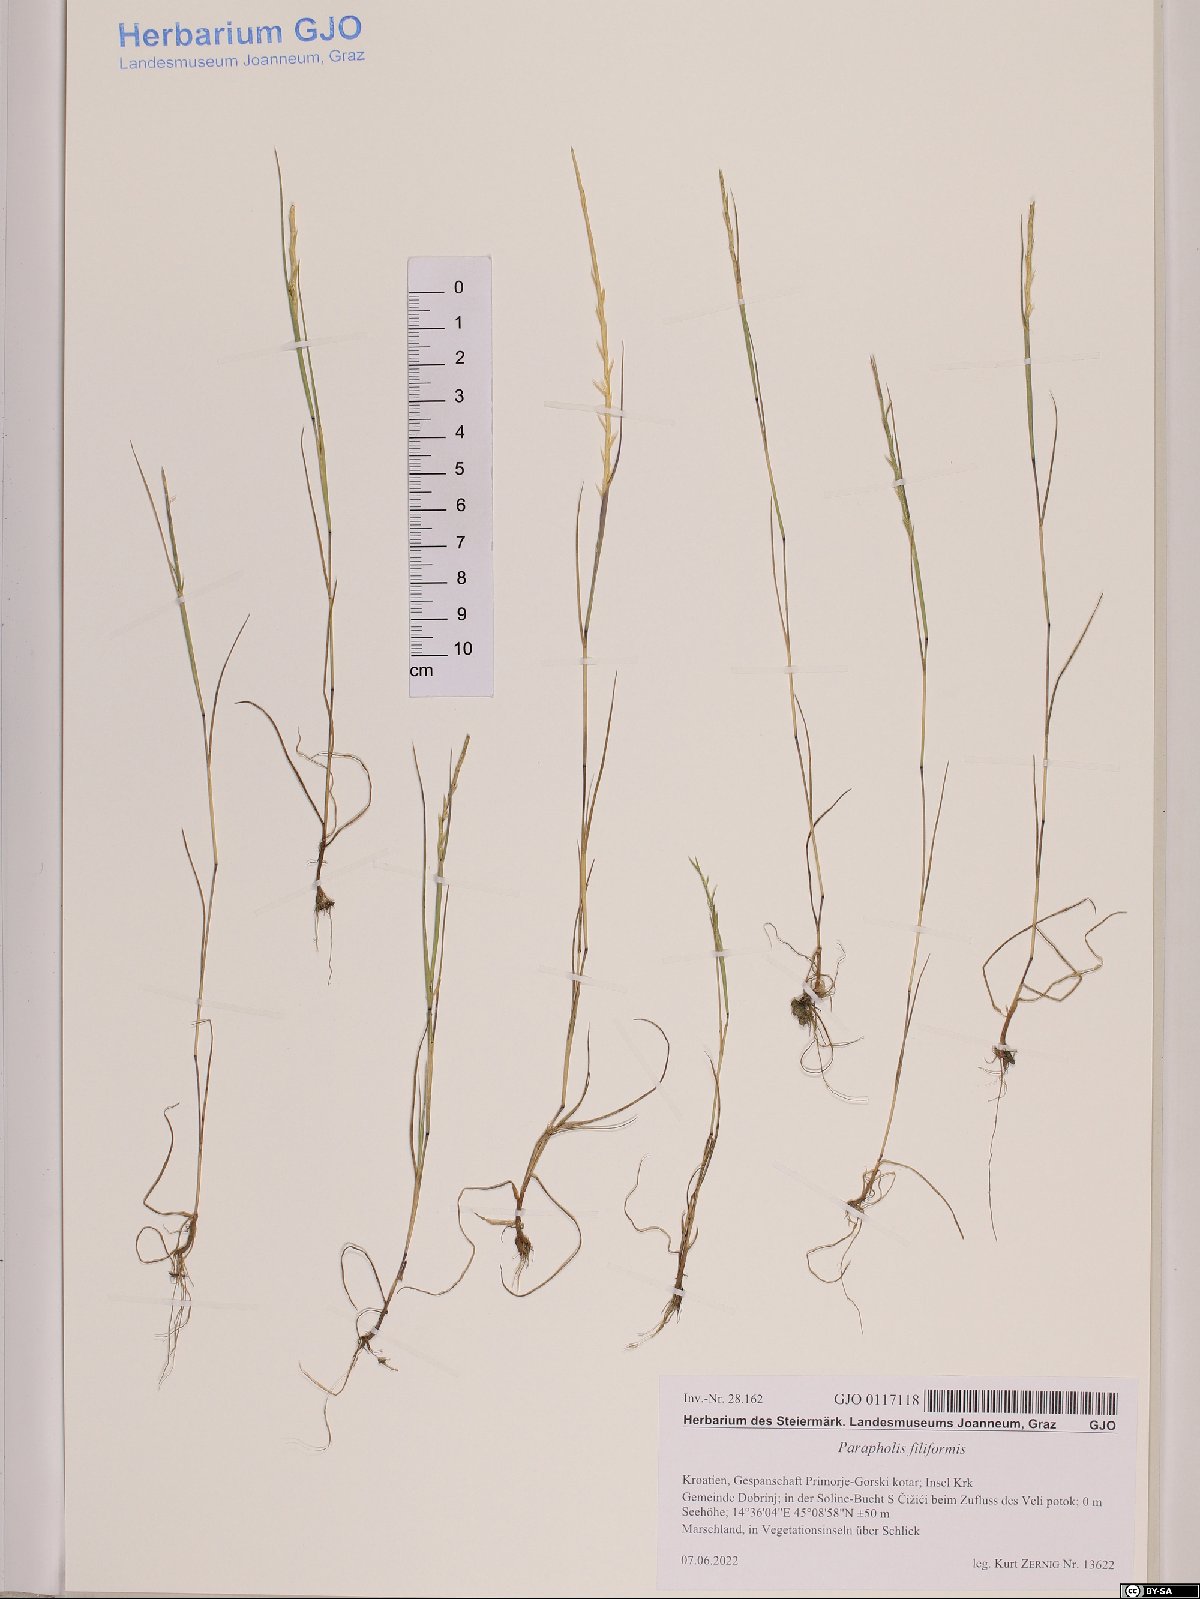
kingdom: Plantae
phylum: Tracheophyta
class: Liliopsida
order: Poales
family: Poaceae
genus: Parapholis
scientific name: Parapholis filiformis
